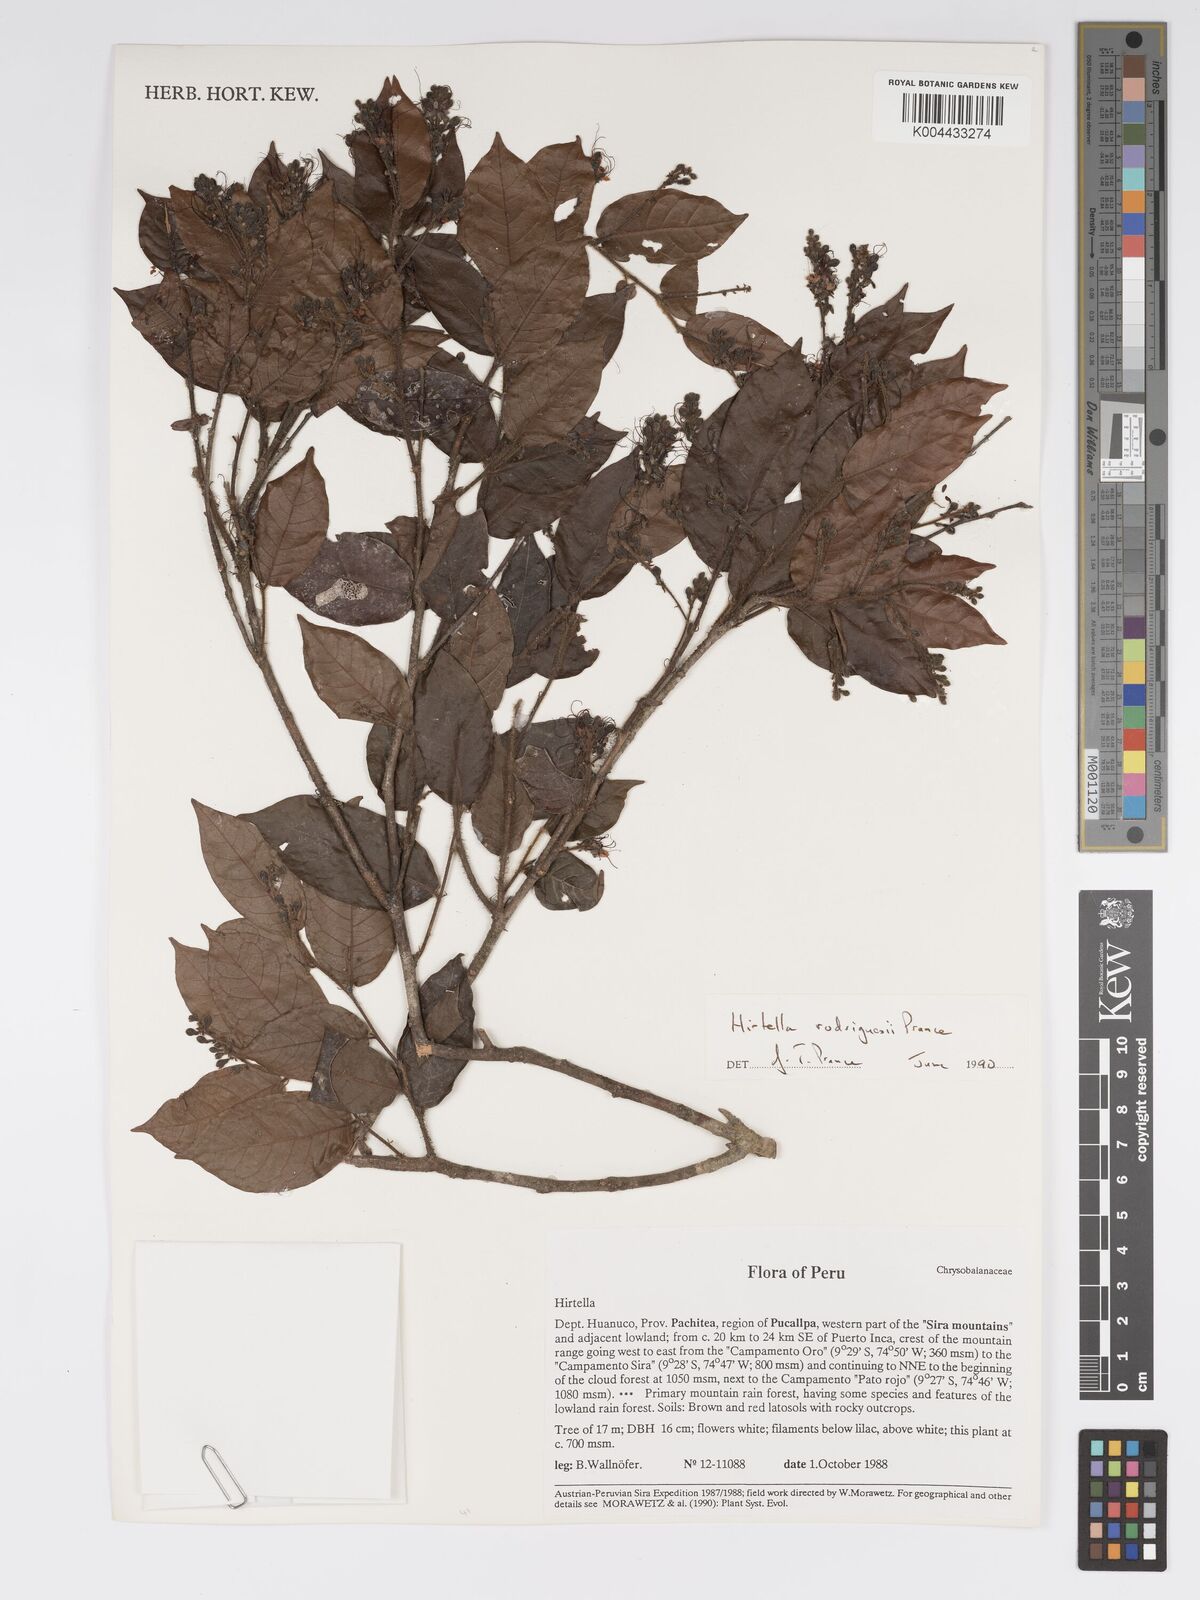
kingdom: Plantae
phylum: Tracheophyta
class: Magnoliopsida
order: Malpighiales
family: Chrysobalanaceae
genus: Hirtella
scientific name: Hirtella rodriguesii
